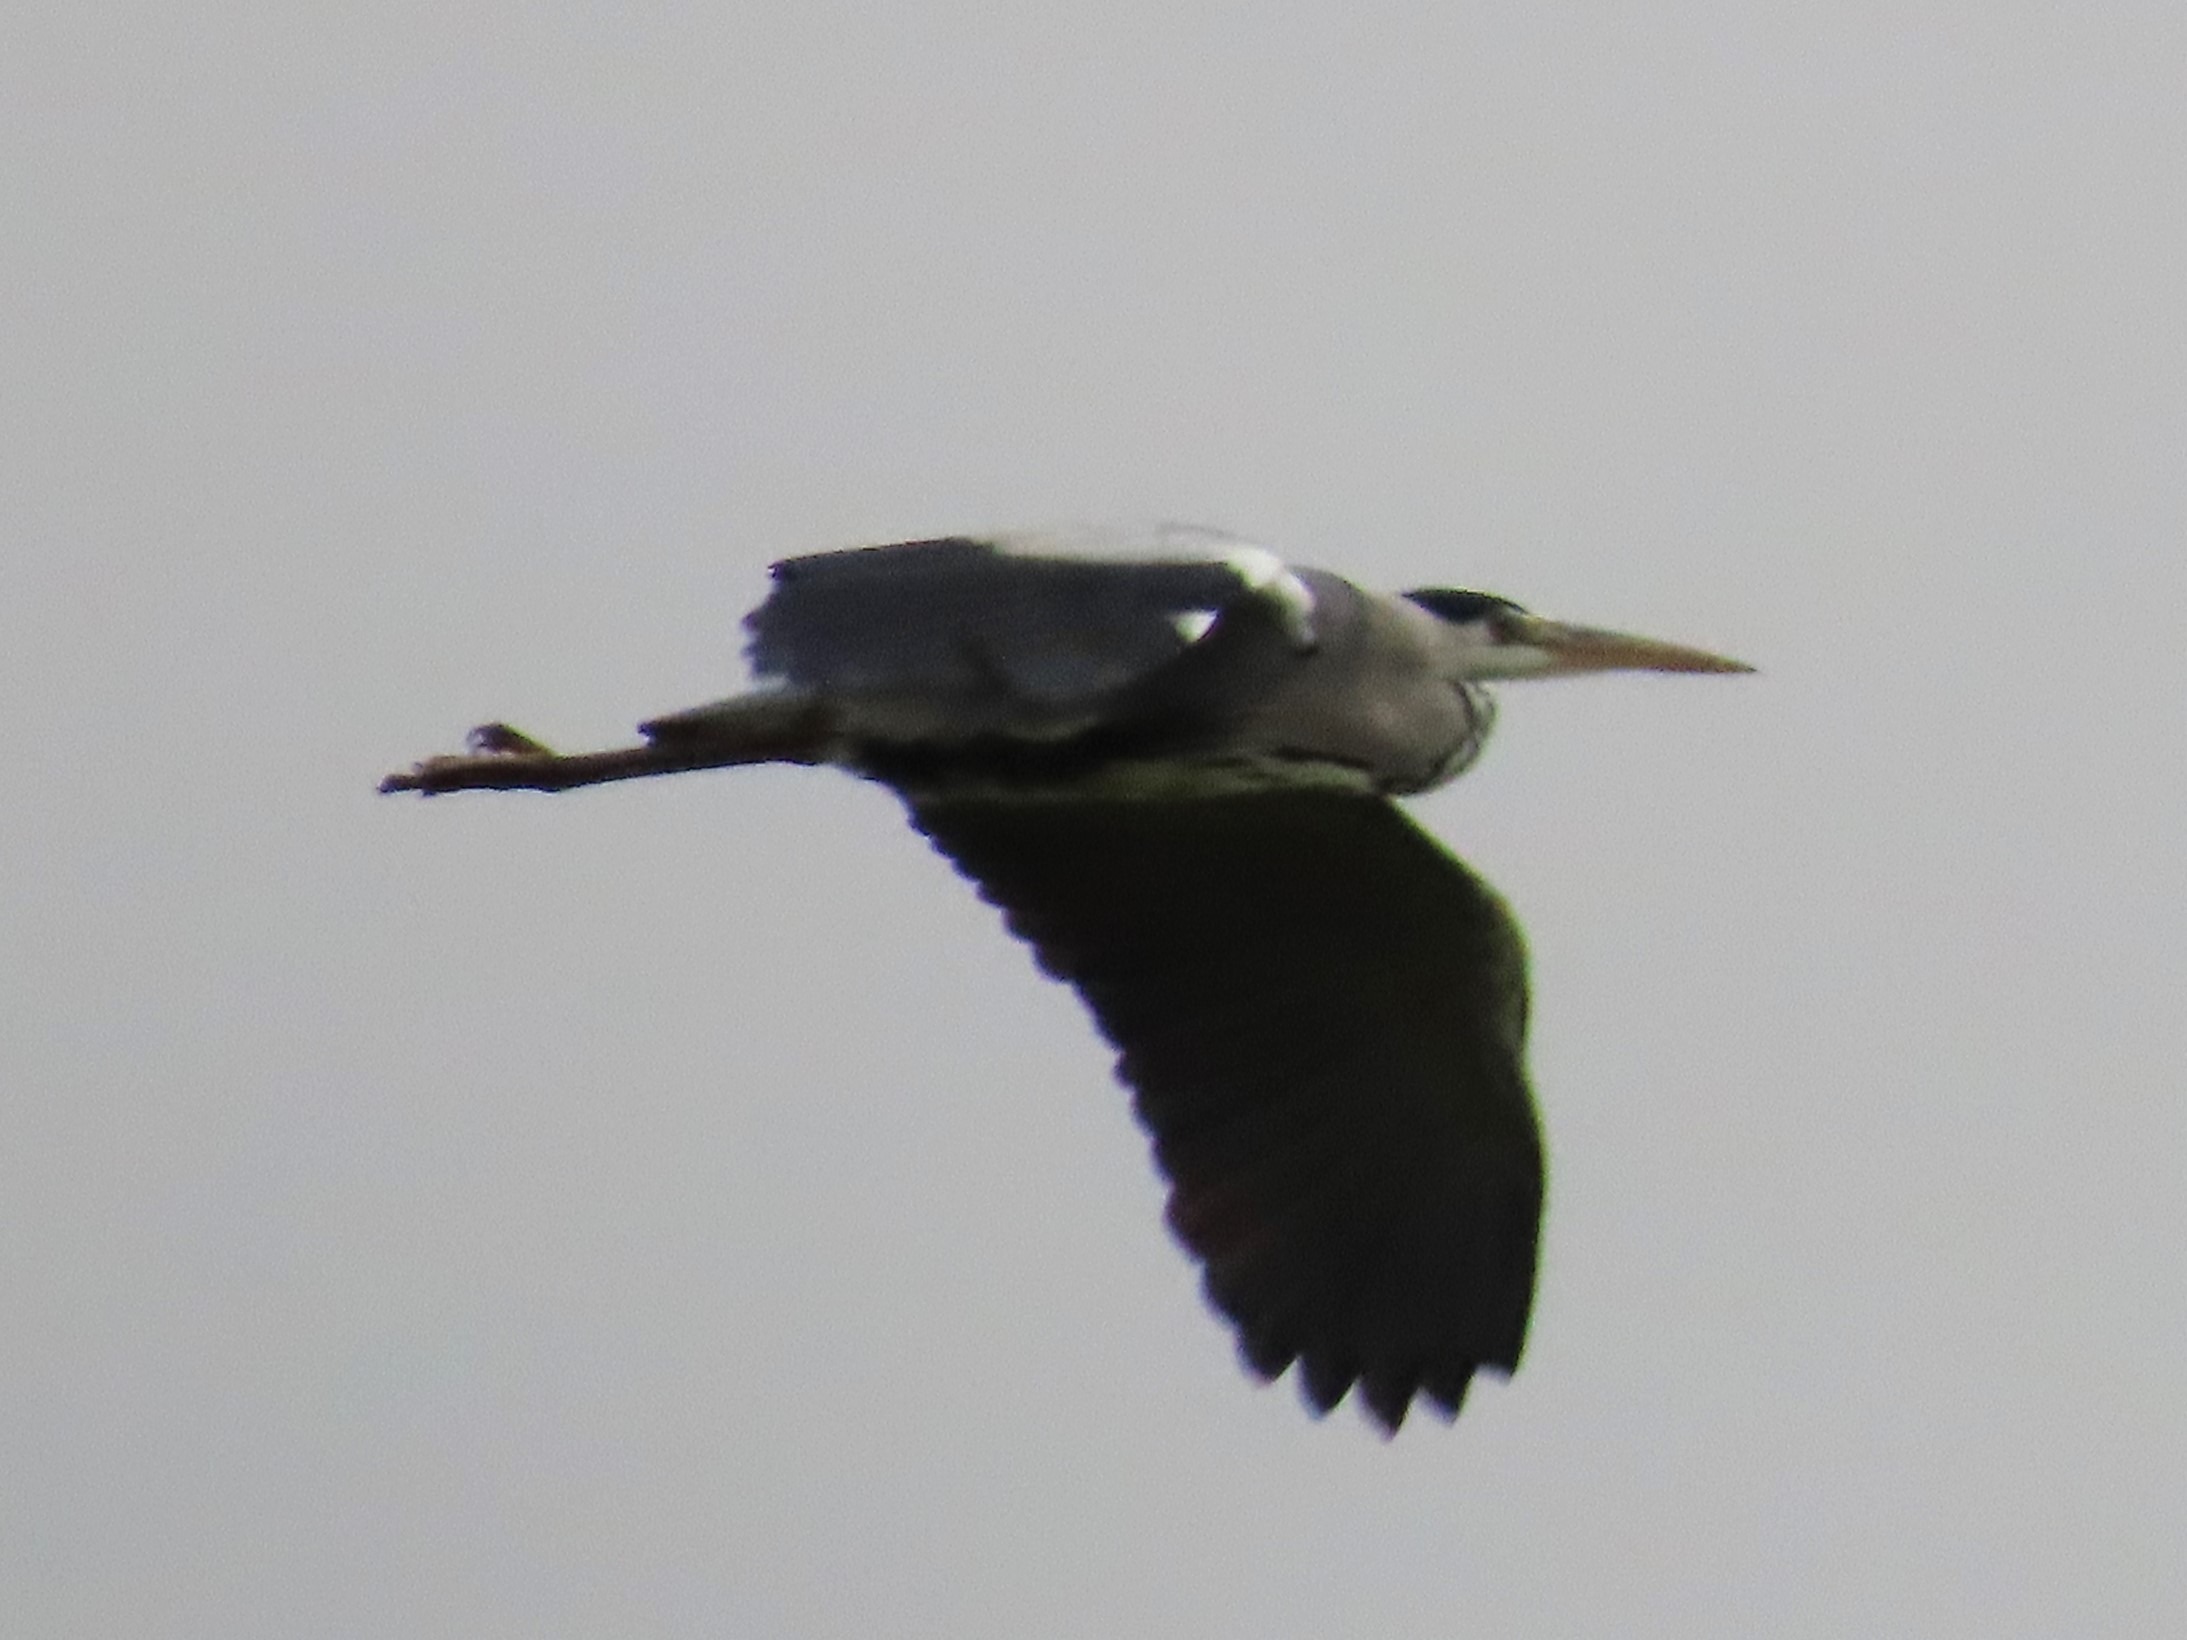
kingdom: Animalia
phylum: Chordata
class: Aves
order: Pelecaniformes
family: Ardeidae
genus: Ardea
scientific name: Ardea cinerea
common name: Fiskehejre
